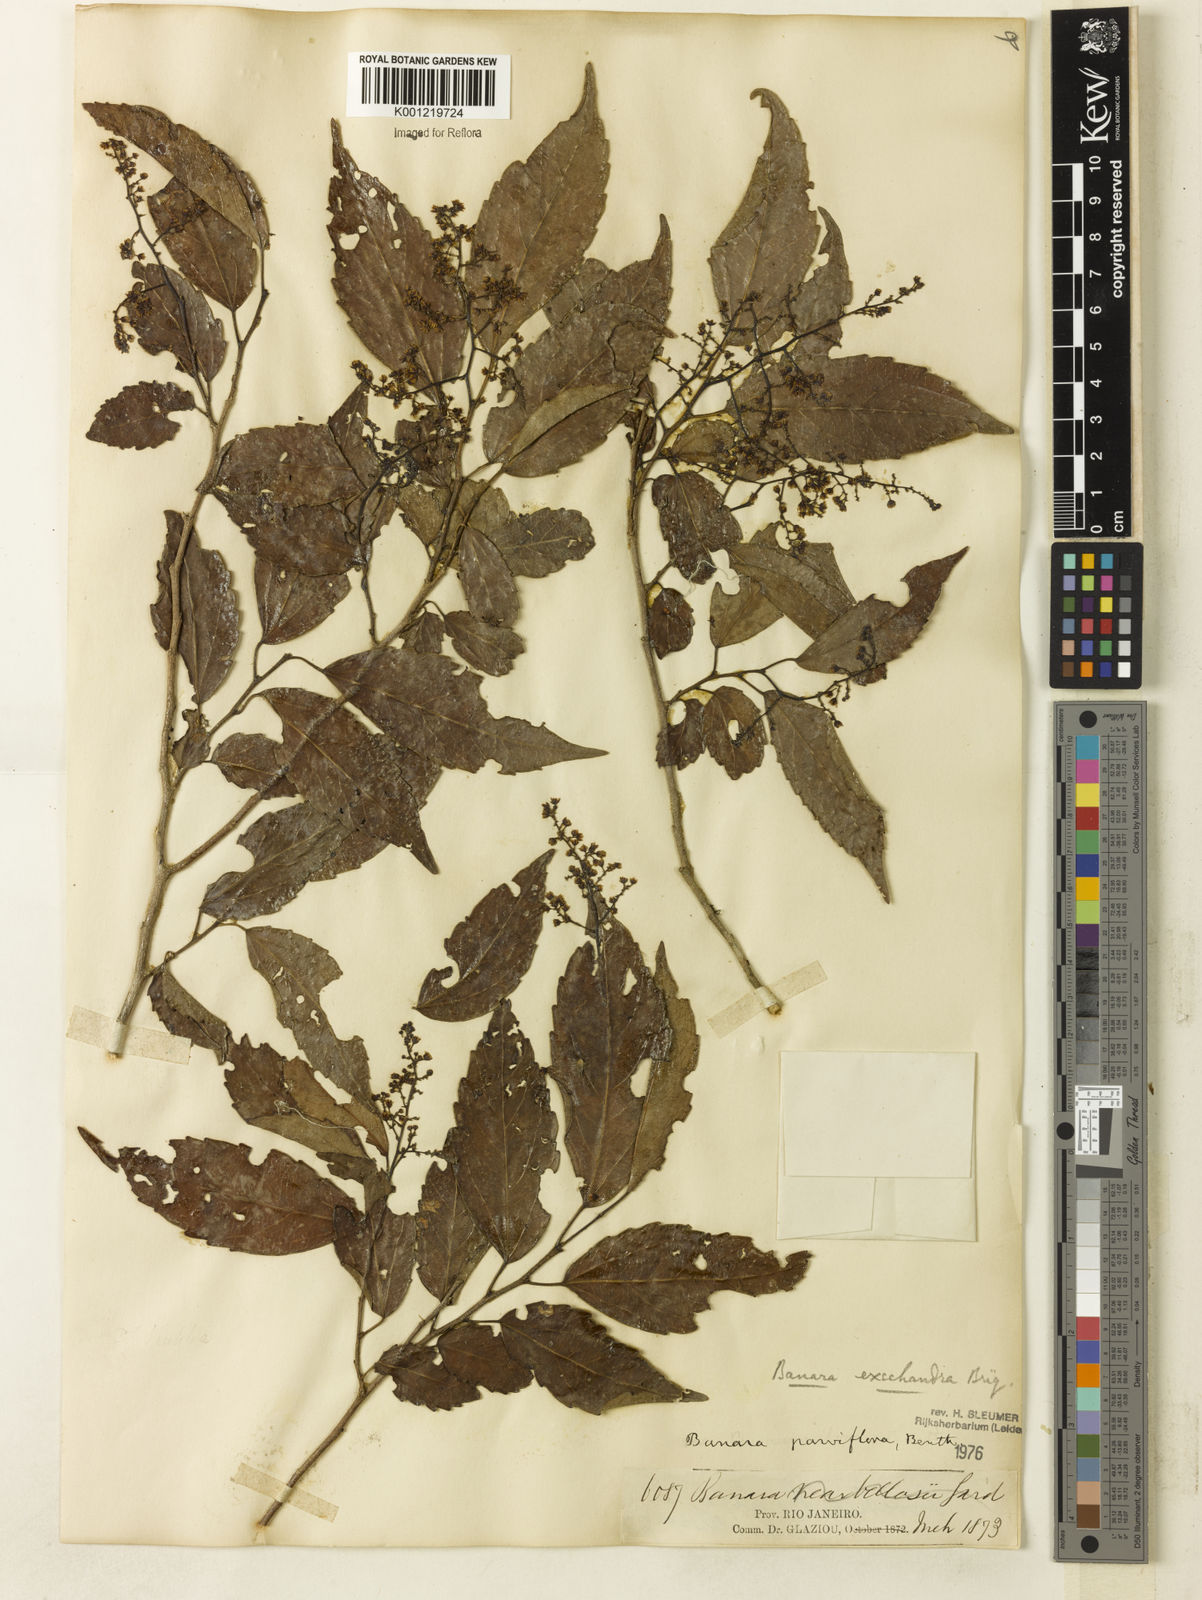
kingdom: Plantae
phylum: Tracheophyta
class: Magnoliopsida
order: Malpighiales
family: Salicaceae
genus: Banara
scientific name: Banara parviflora
